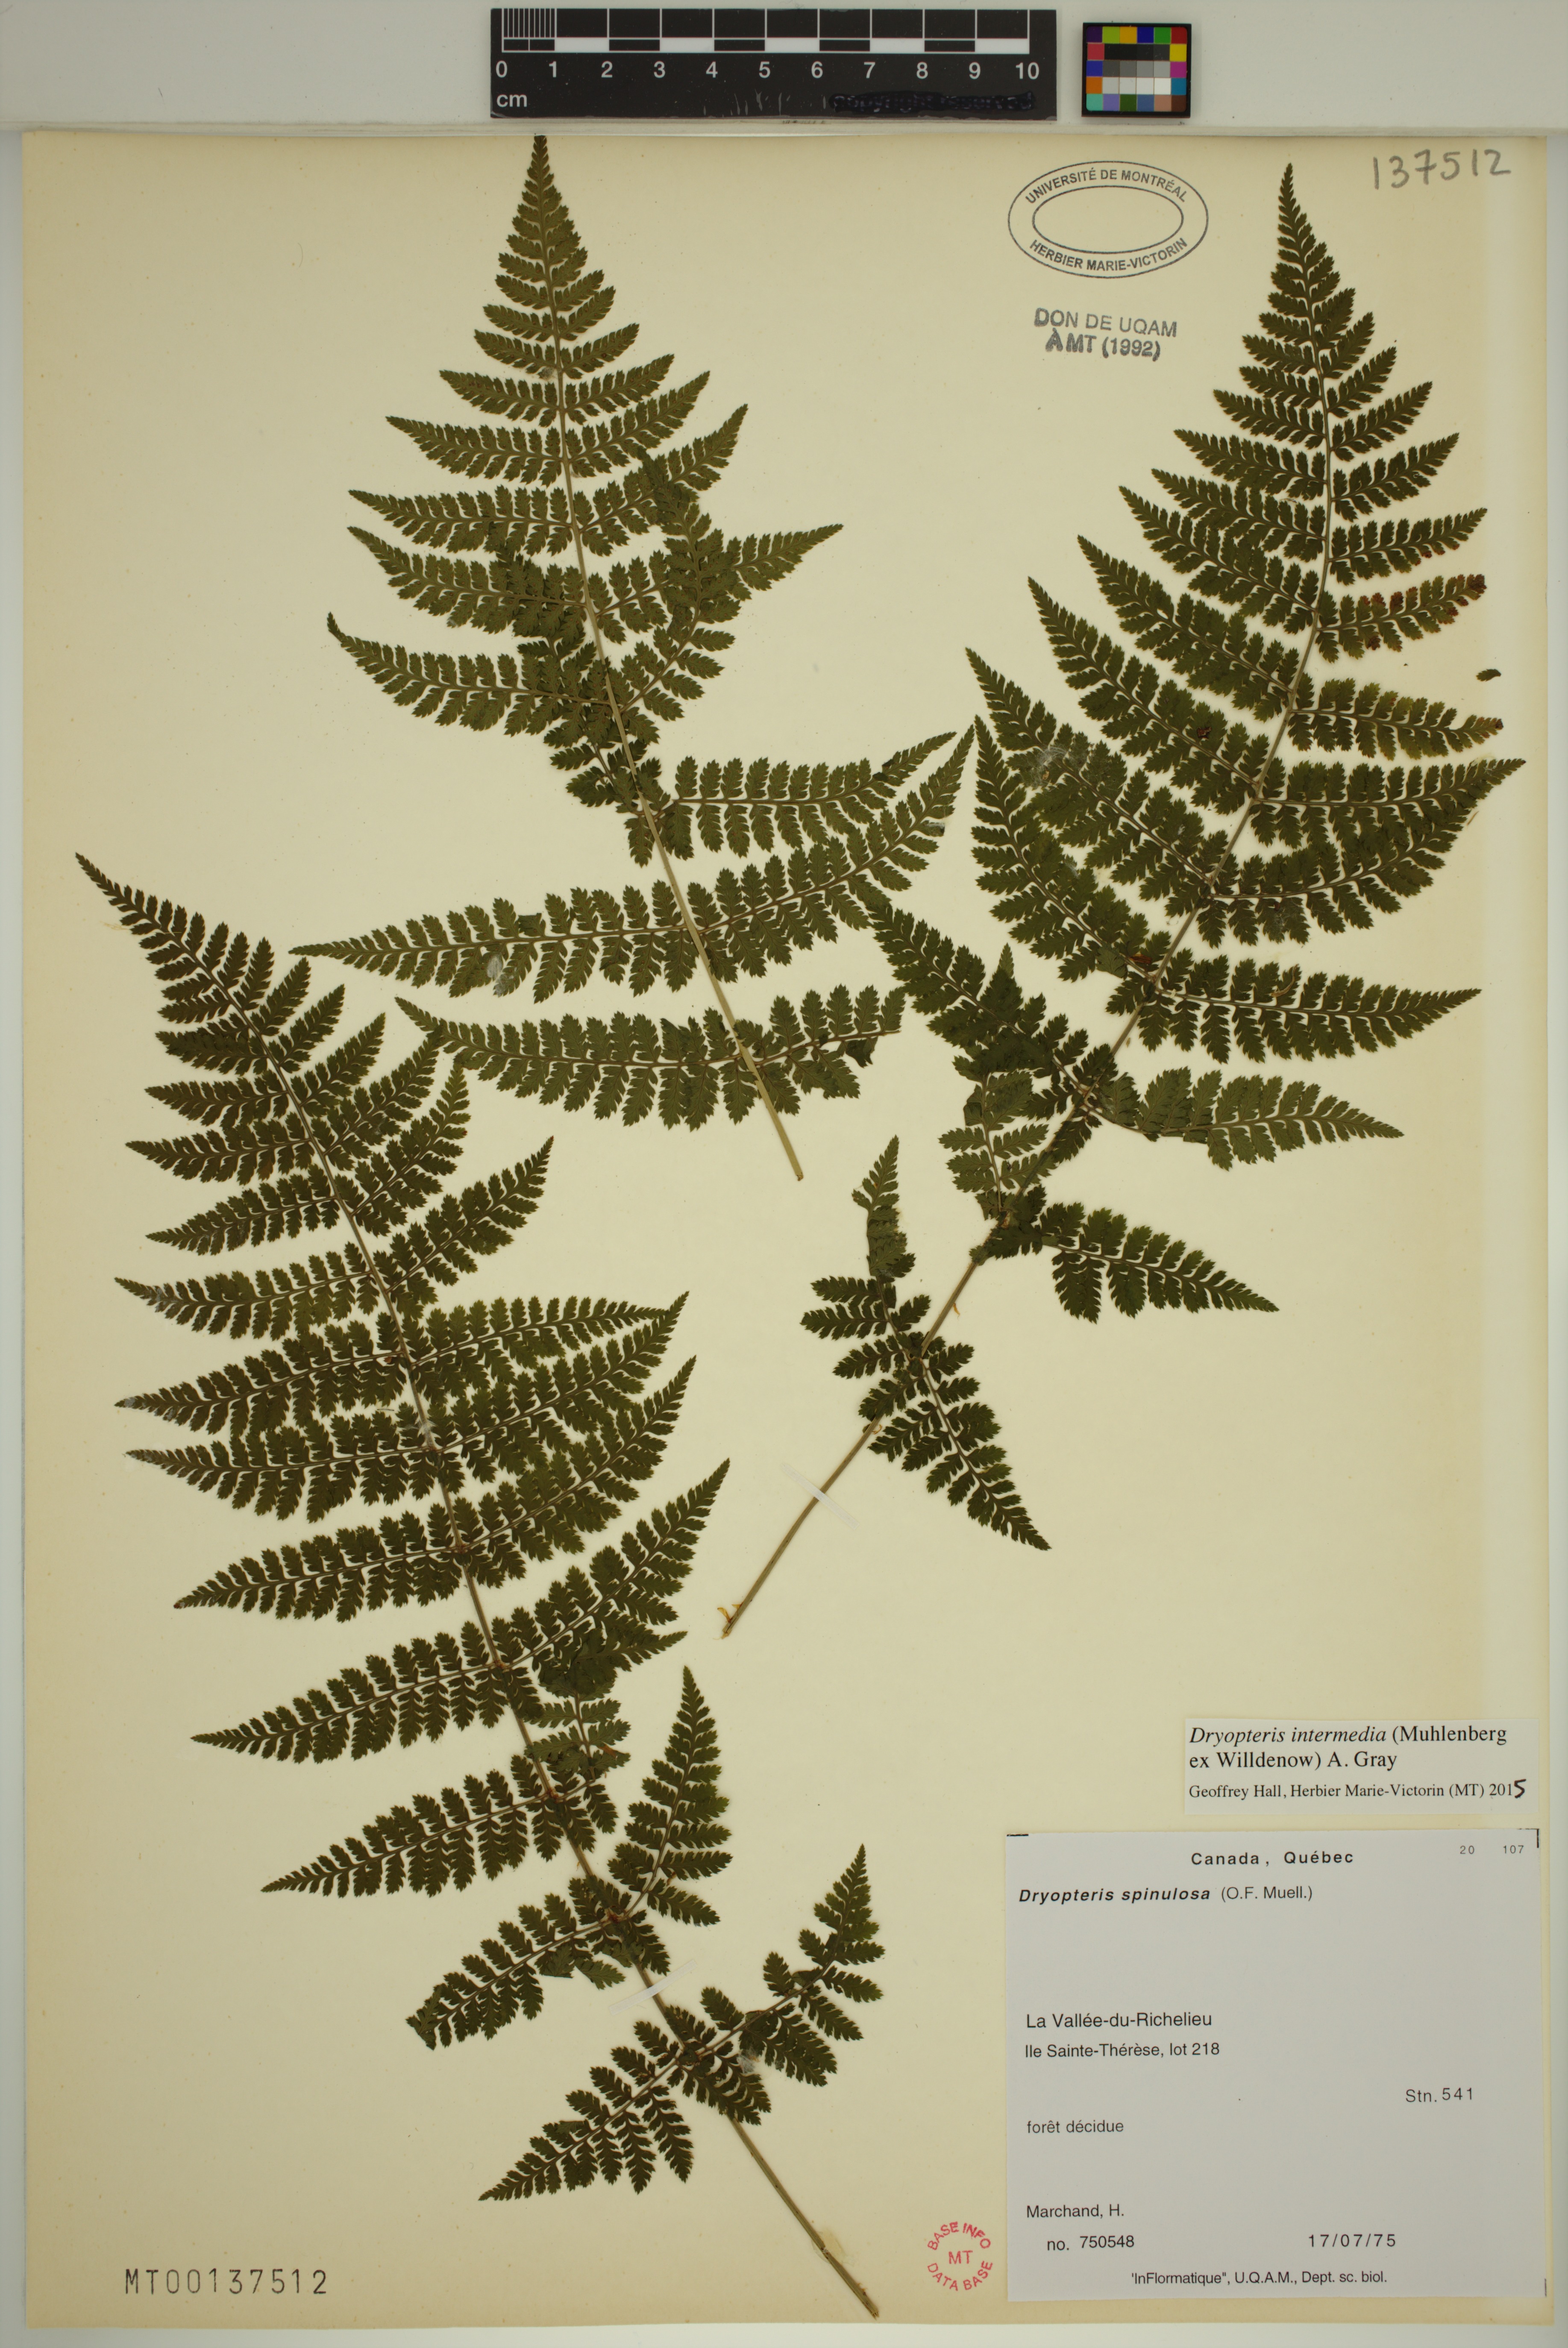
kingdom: Plantae
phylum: Tracheophyta
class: Polypodiopsida
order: Polypodiales
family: Dryopteridaceae
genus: Dryopteris
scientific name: Dryopteris intermedia
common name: Evergreen wood fern
